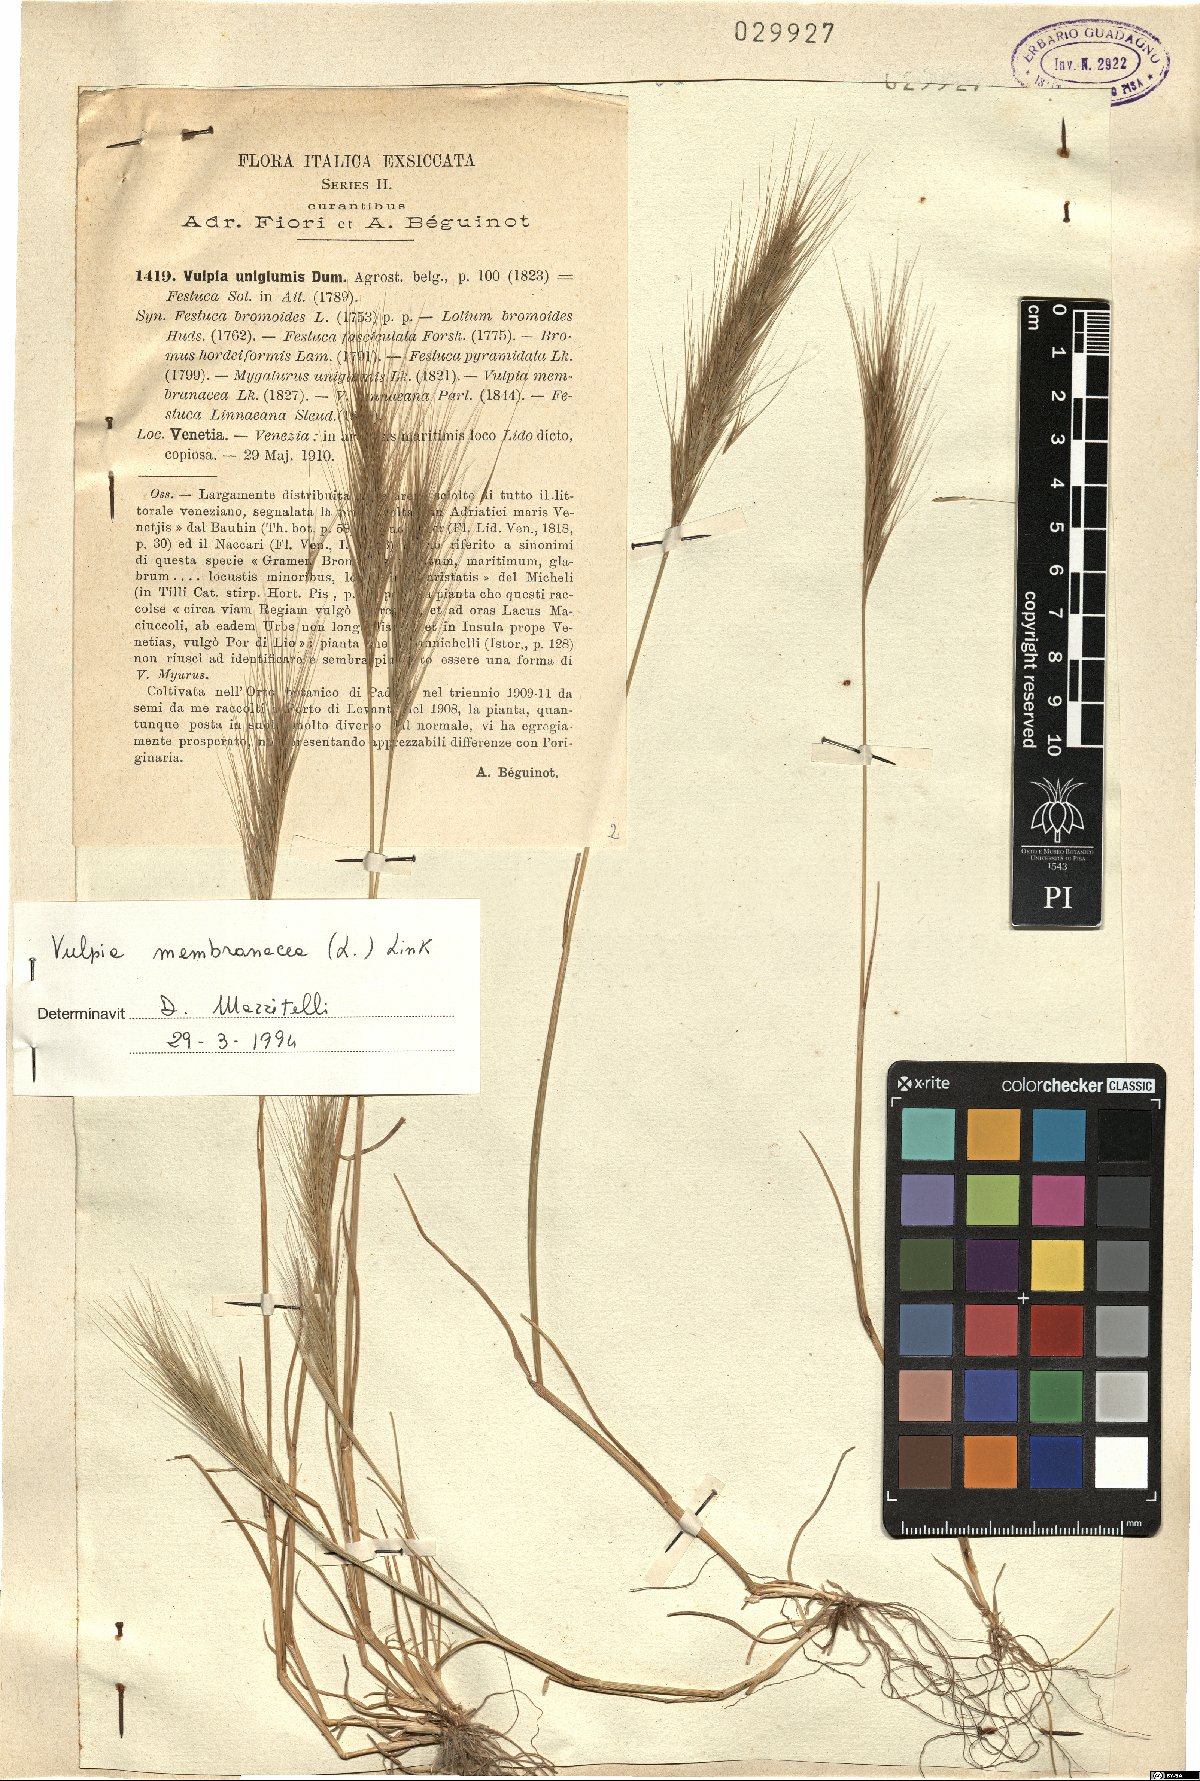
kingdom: Plantae
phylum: Tracheophyta
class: Liliopsida
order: Poales
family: Poaceae
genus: Festuca
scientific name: Festuca membranacea
